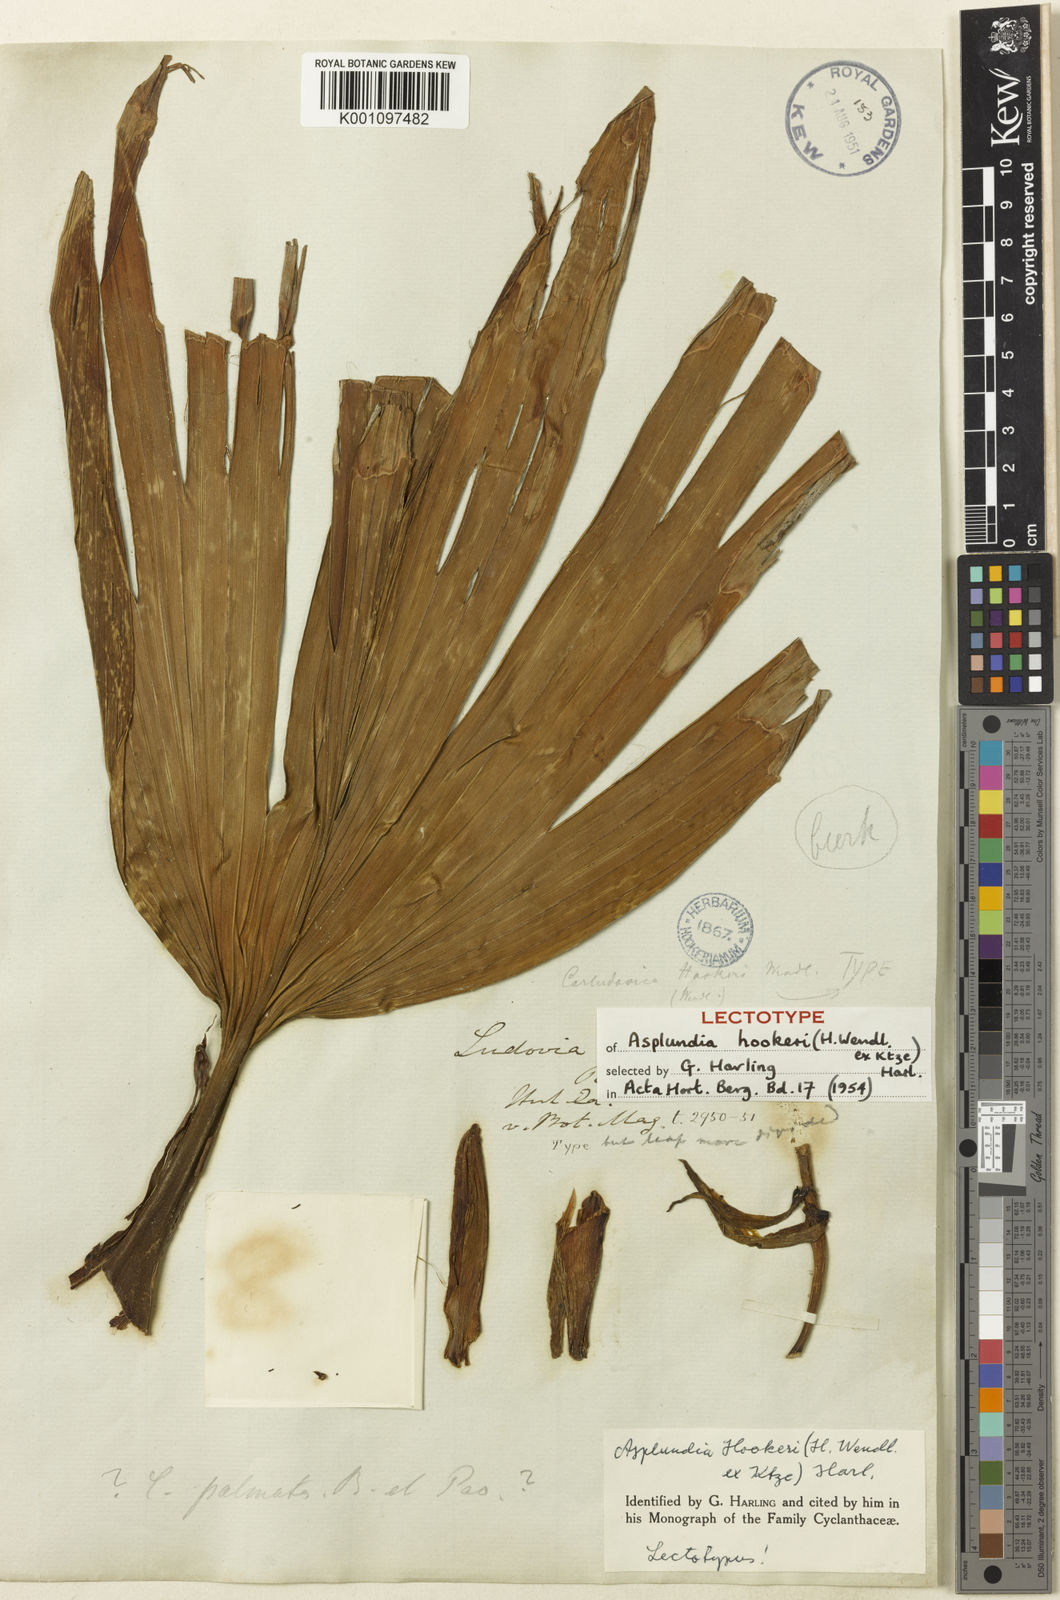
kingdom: Plantae
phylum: Tracheophyta
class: Liliopsida
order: Pandanales
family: Cyclanthaceae
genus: Asplundia
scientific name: Asplundia hookeri
